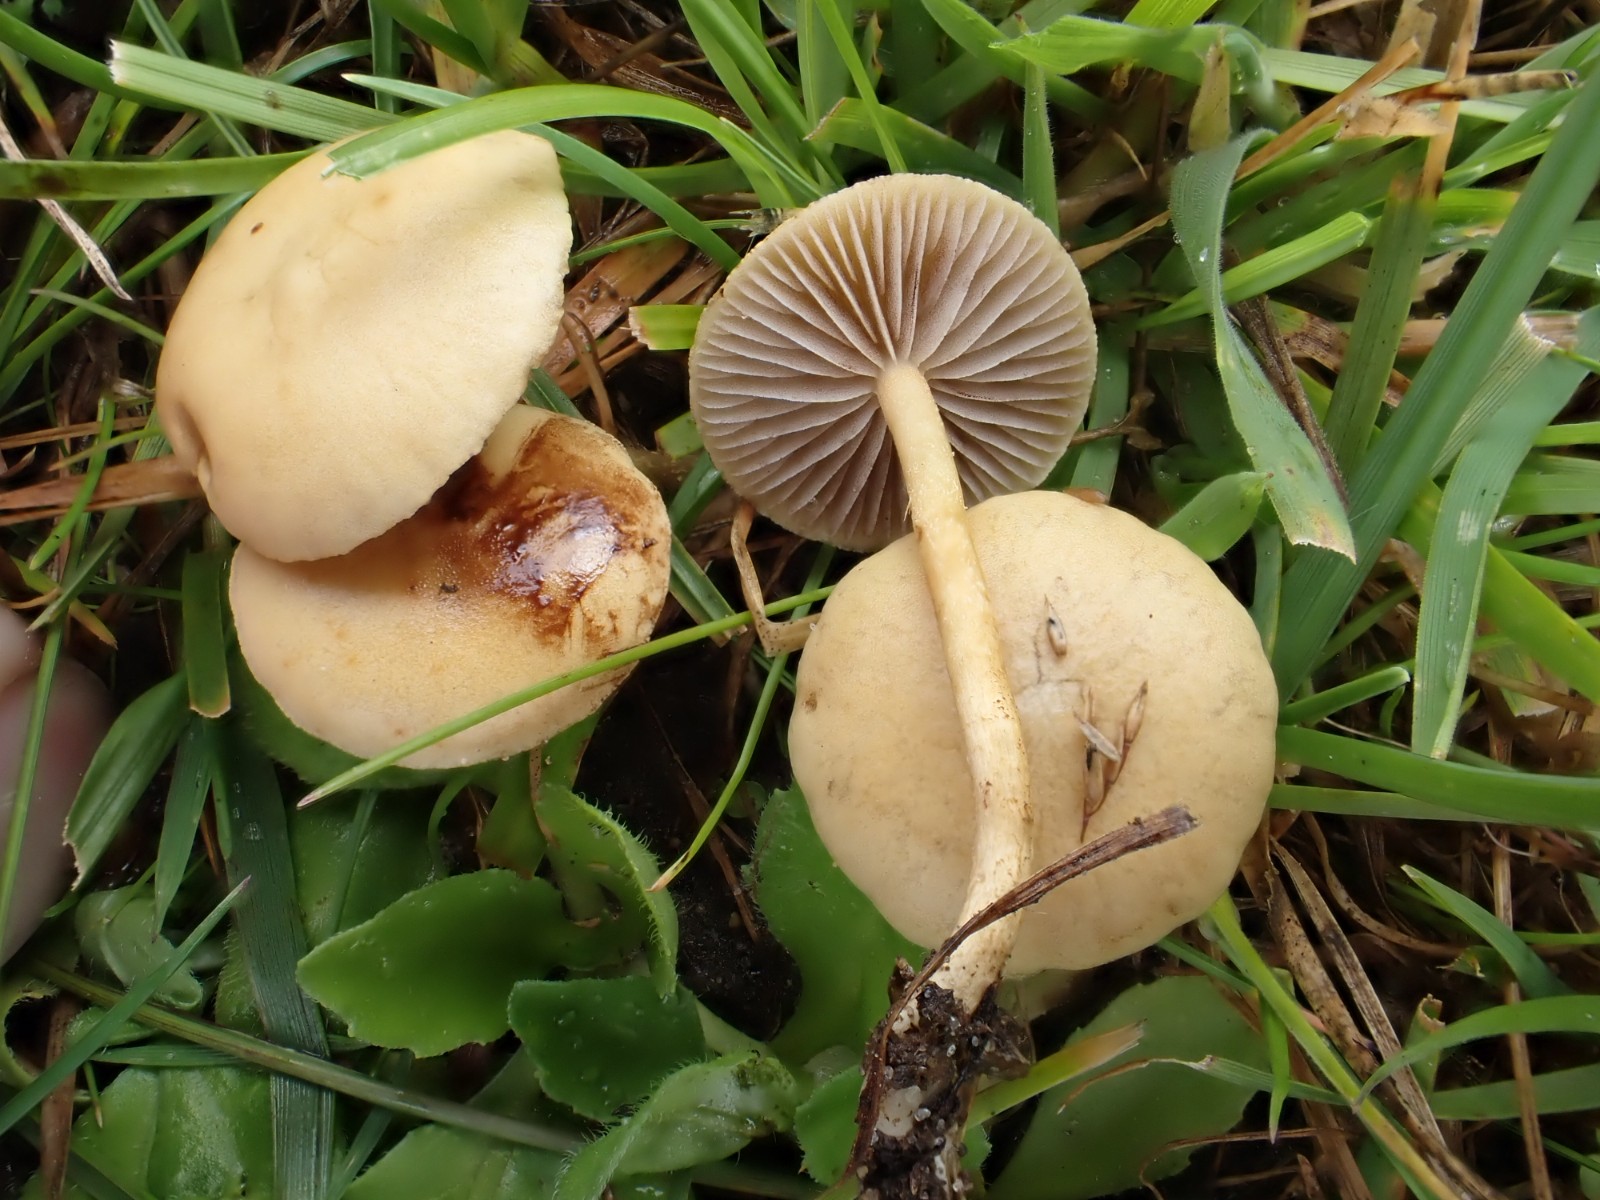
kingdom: Fungi
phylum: Basidiomycota
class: Agaricomycetes
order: Agaricales
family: Strophariaceae
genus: Agrocybe
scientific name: Agrocybe pediades
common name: almindelig agerhat
